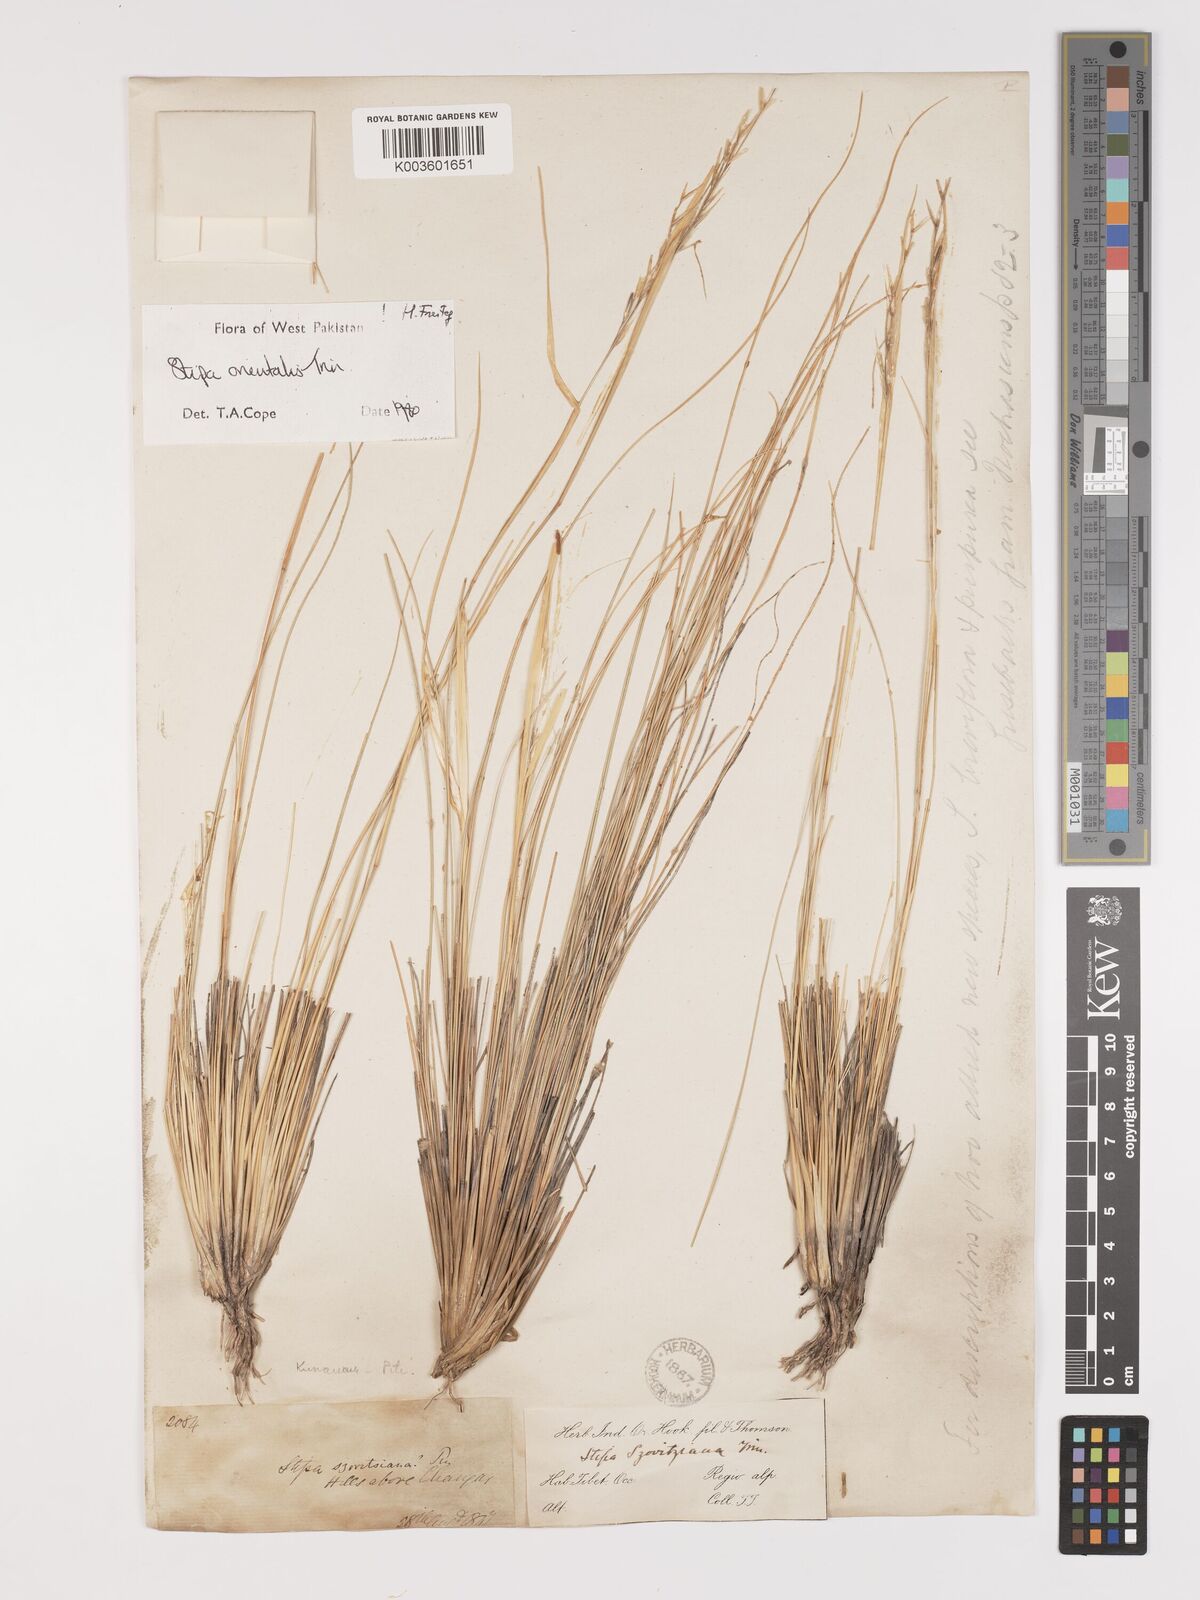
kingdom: Plantae
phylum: Tracheophyta
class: Liliopsida
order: Poales
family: Poaceae
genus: Stipa
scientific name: Stipa orientalis
